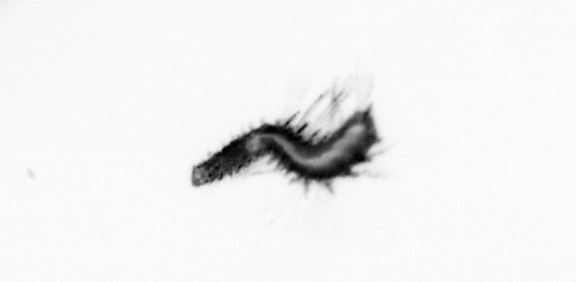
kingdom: Animalia
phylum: Annelida
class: Polychaeta
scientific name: Polychaeta
